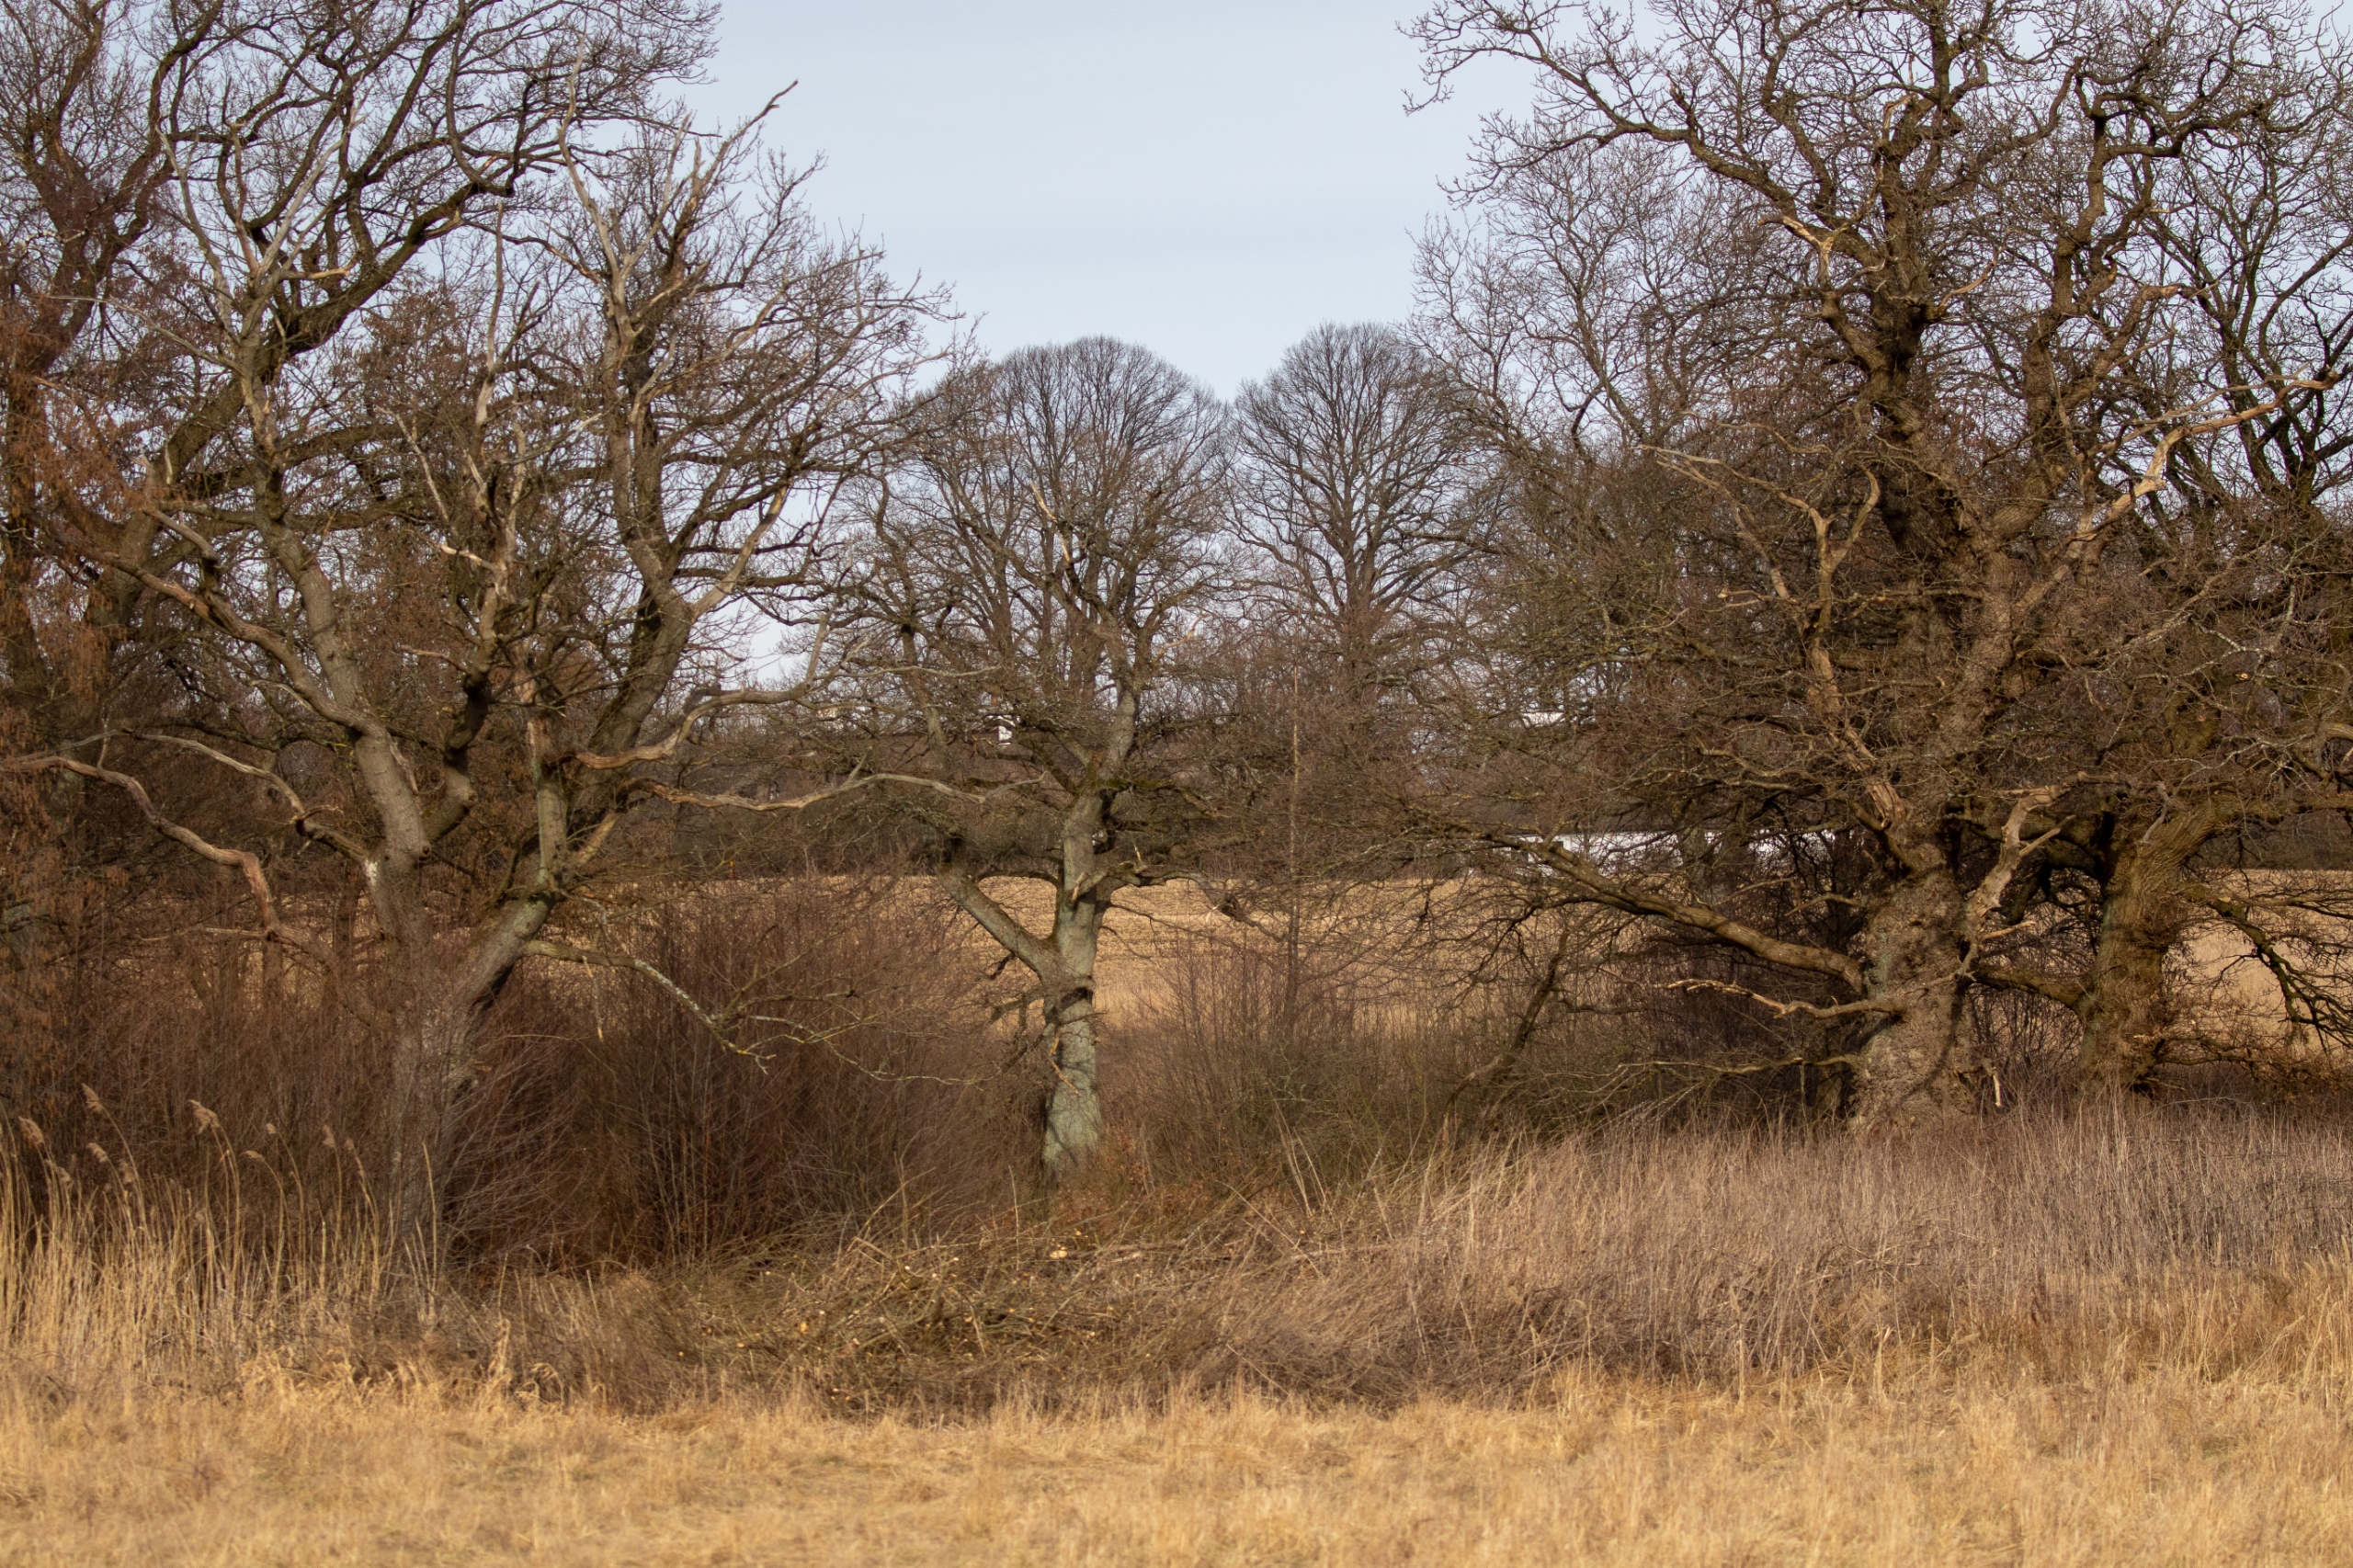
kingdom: Plantae
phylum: Tracheophyta
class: Magnoliopsida
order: Fagales
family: Fagaceae
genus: Quercus
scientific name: Quercus robur
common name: Stilk-eg/almindelig eg
